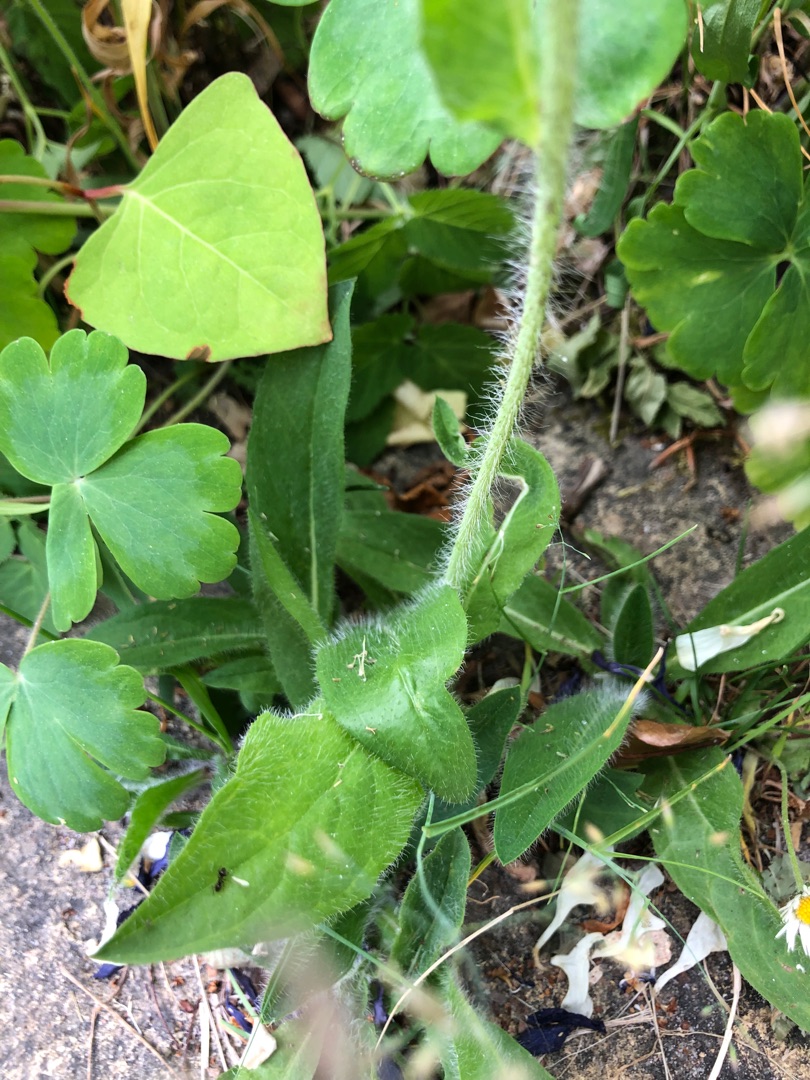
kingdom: Plantae
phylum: Tracheophyta
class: Magnoliopsida
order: Asterales
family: Asteraceae
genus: Pilosella
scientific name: Pilosella aurantiaca
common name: Pomerans-høgeurt
